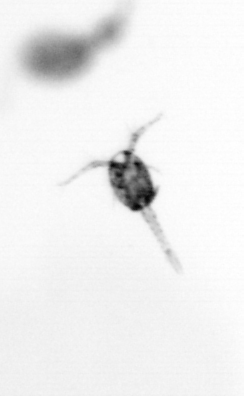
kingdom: Animalia
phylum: Arthropoda
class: Copepoda
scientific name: Copepoda
